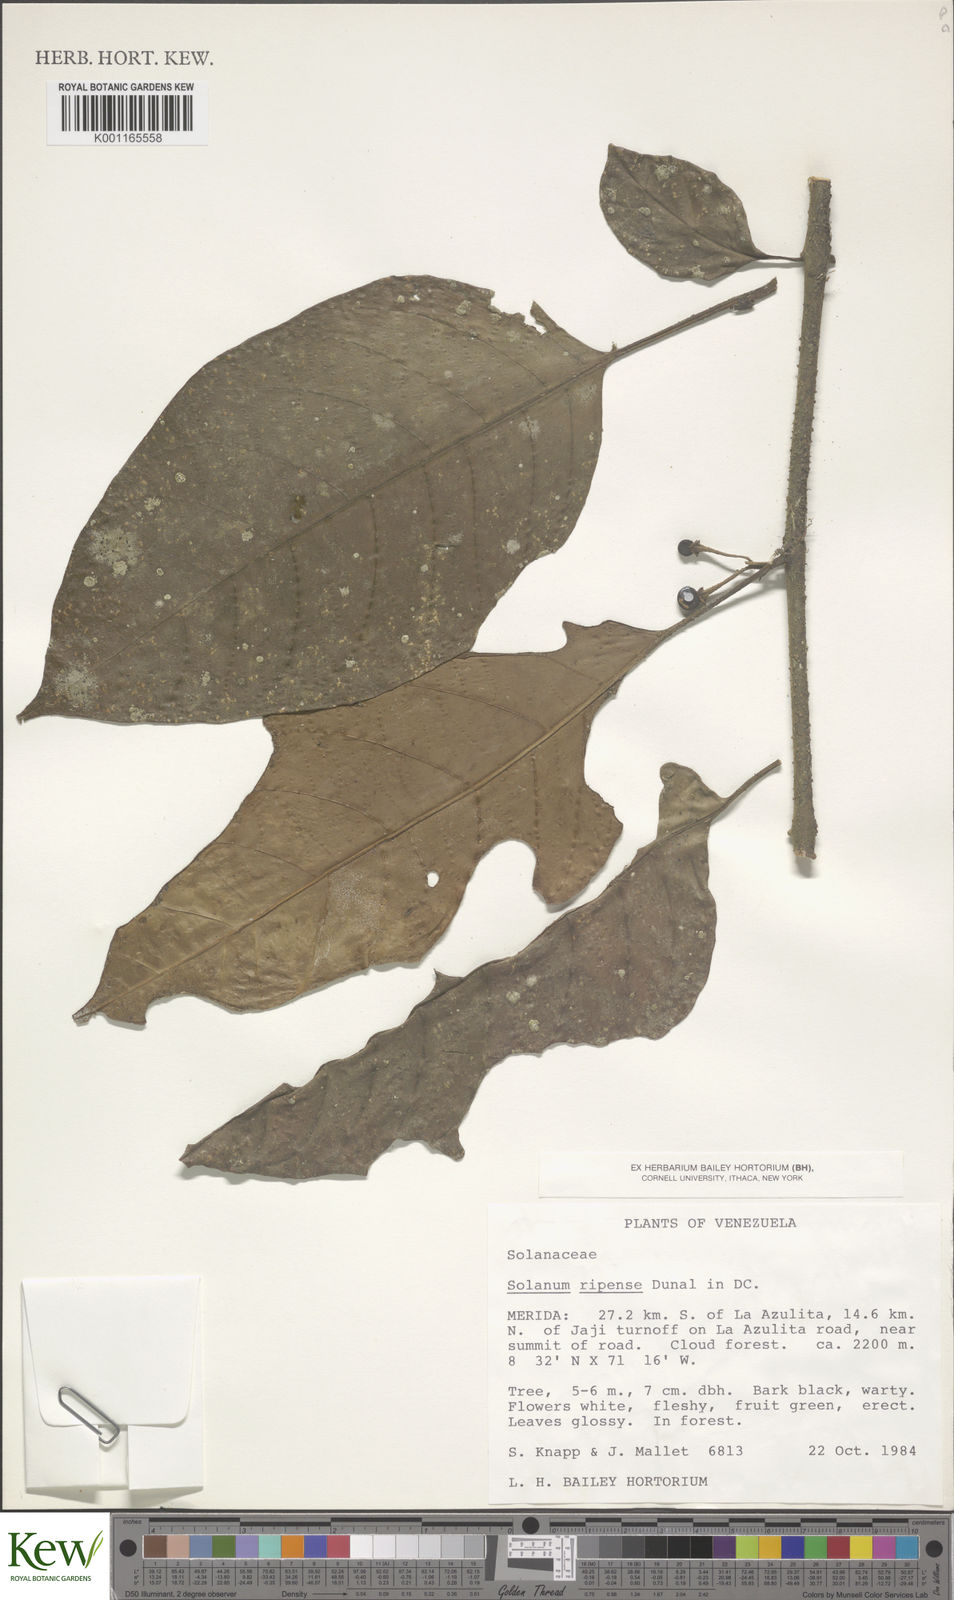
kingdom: Plantae
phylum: Tracheophyta
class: Magnoliopsida
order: Solanales
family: Solanaceae
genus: Solanum
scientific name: Solanum ripense
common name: Mérida nightshade
